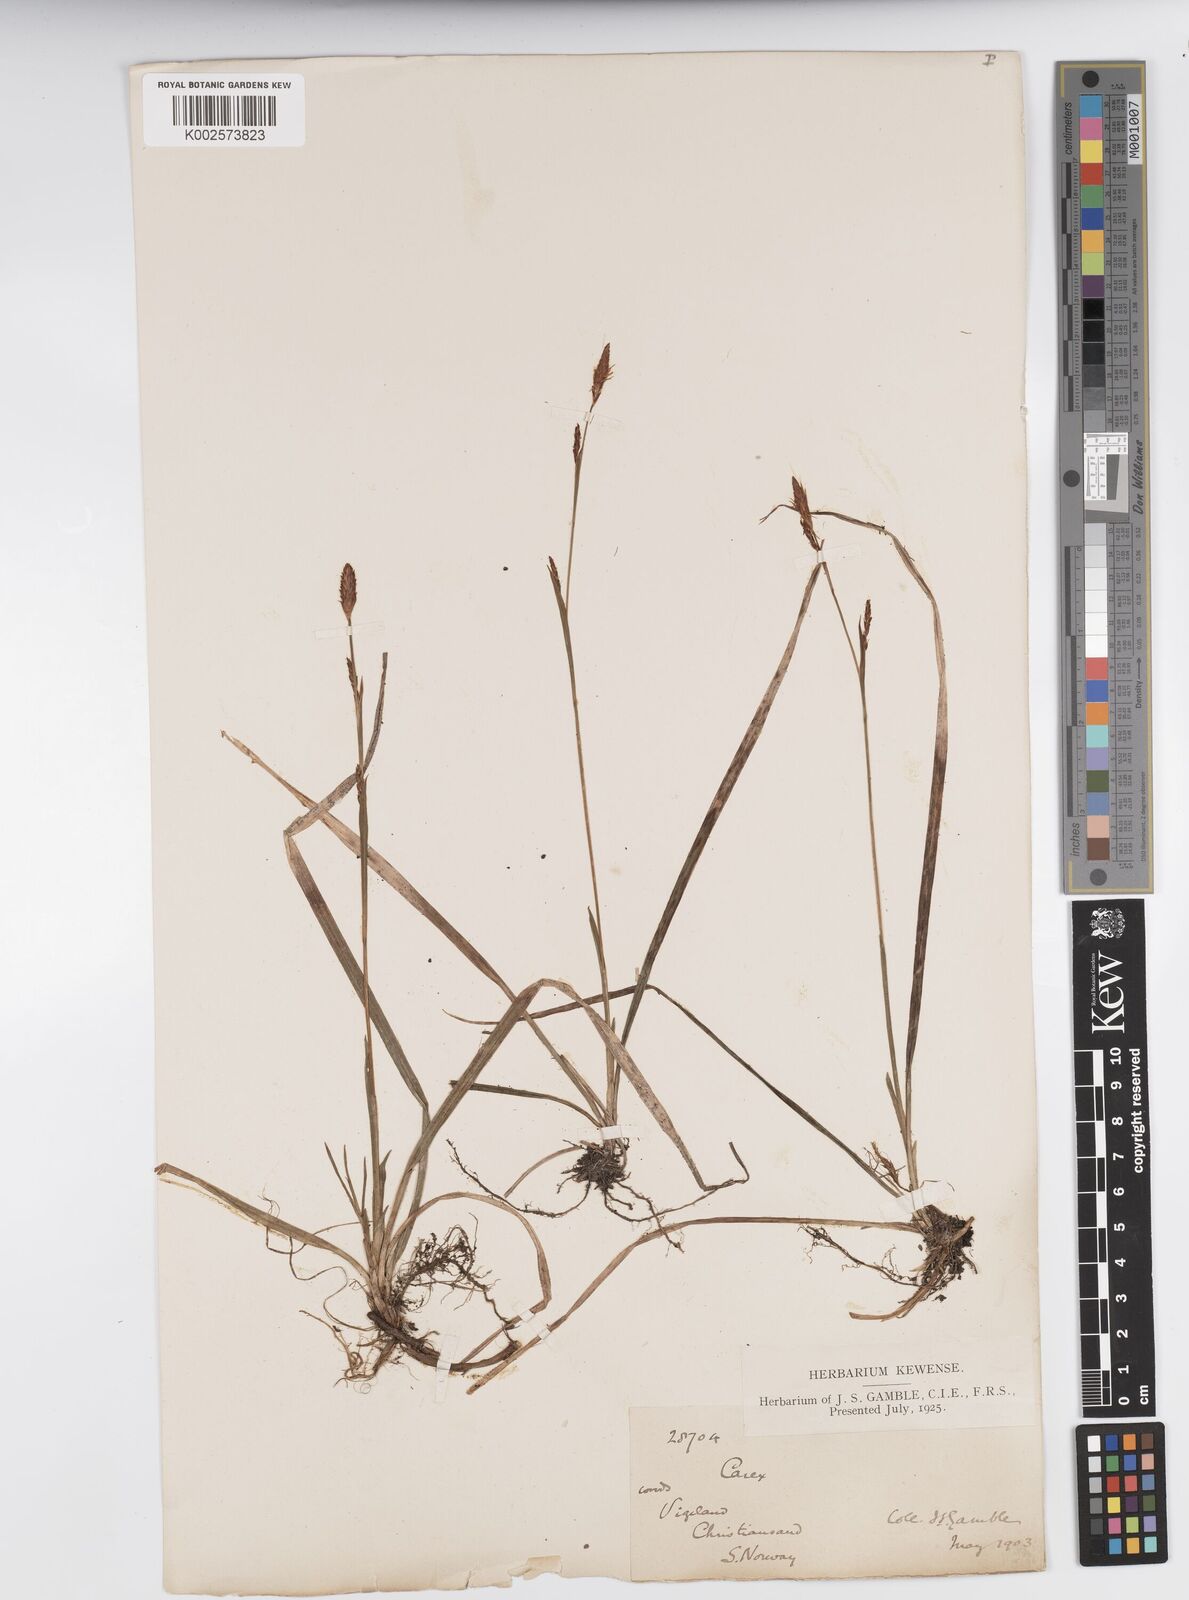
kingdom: Plantae
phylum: Tracheophyta
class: Liliopsida
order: Poales
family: Cyperaceae
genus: Carex
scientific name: Carex vaginata
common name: Sheathed sedge
